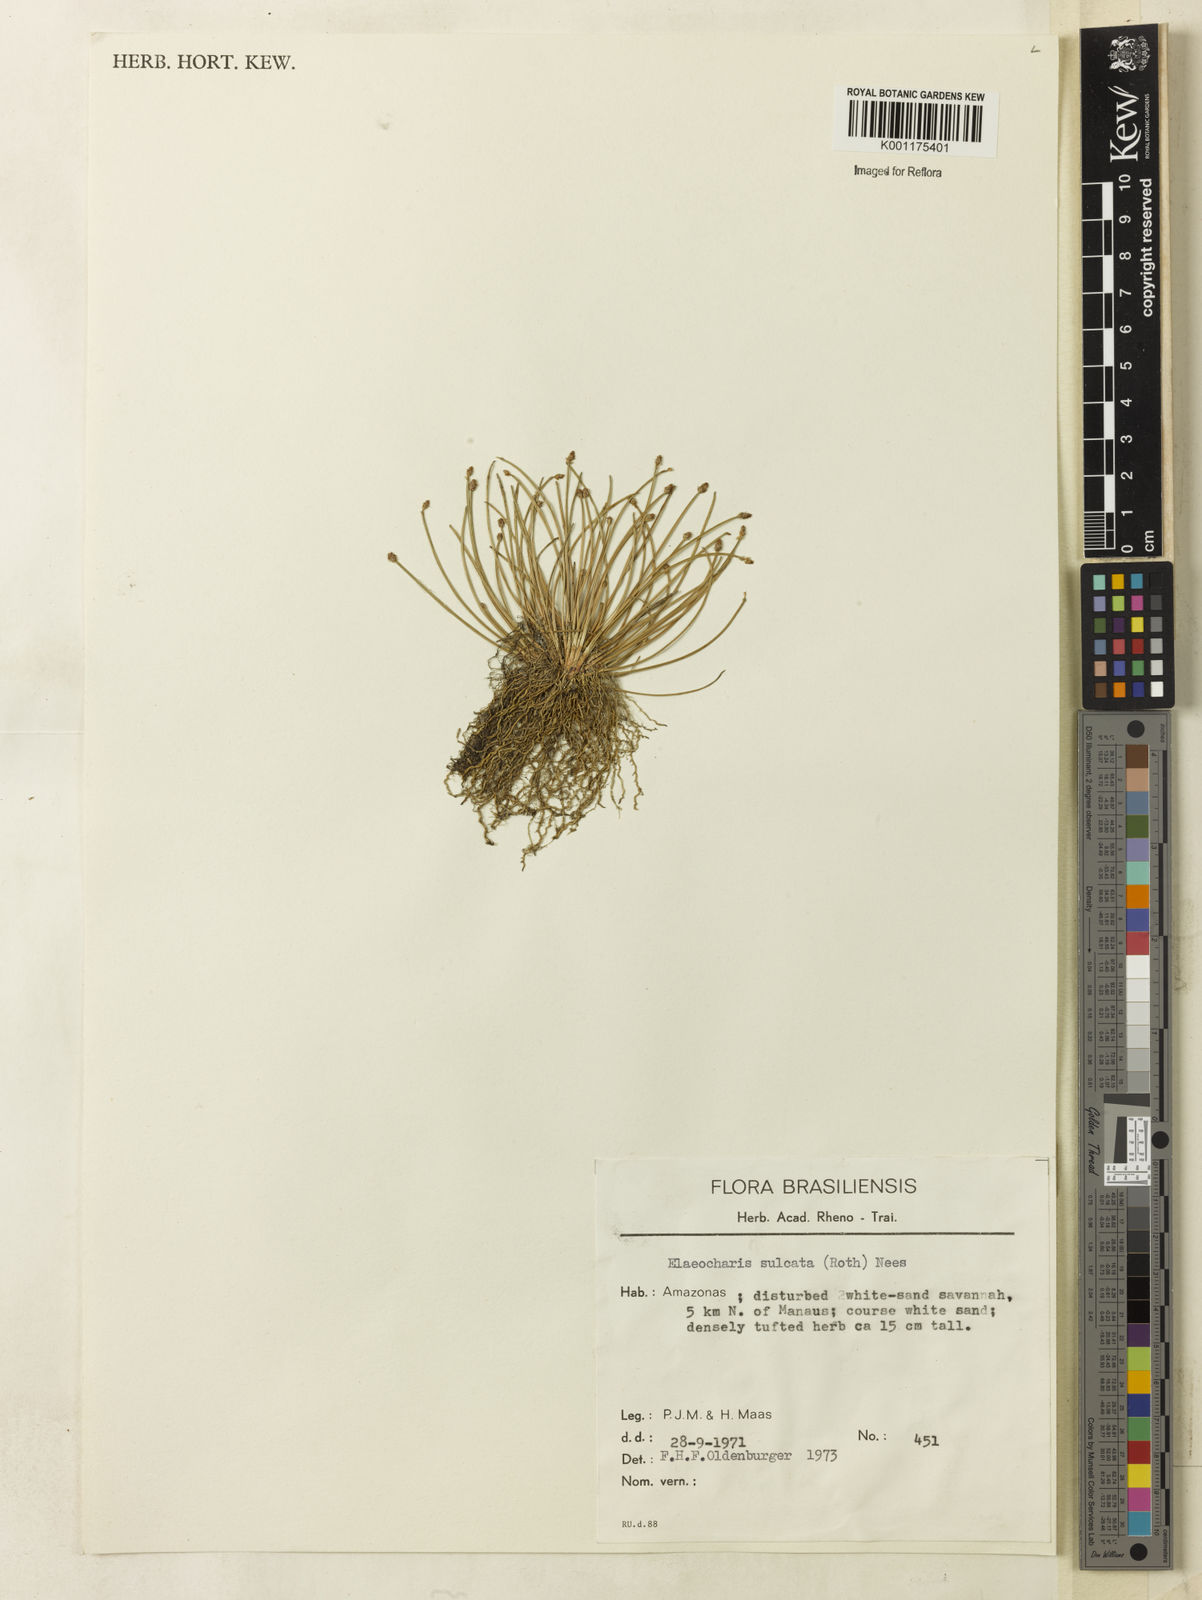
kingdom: Plantae
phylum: Tracheophyta
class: Liliopsida
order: Poales
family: Cyperaceae
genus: Eleocharis
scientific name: Eleocharis filiculmis
